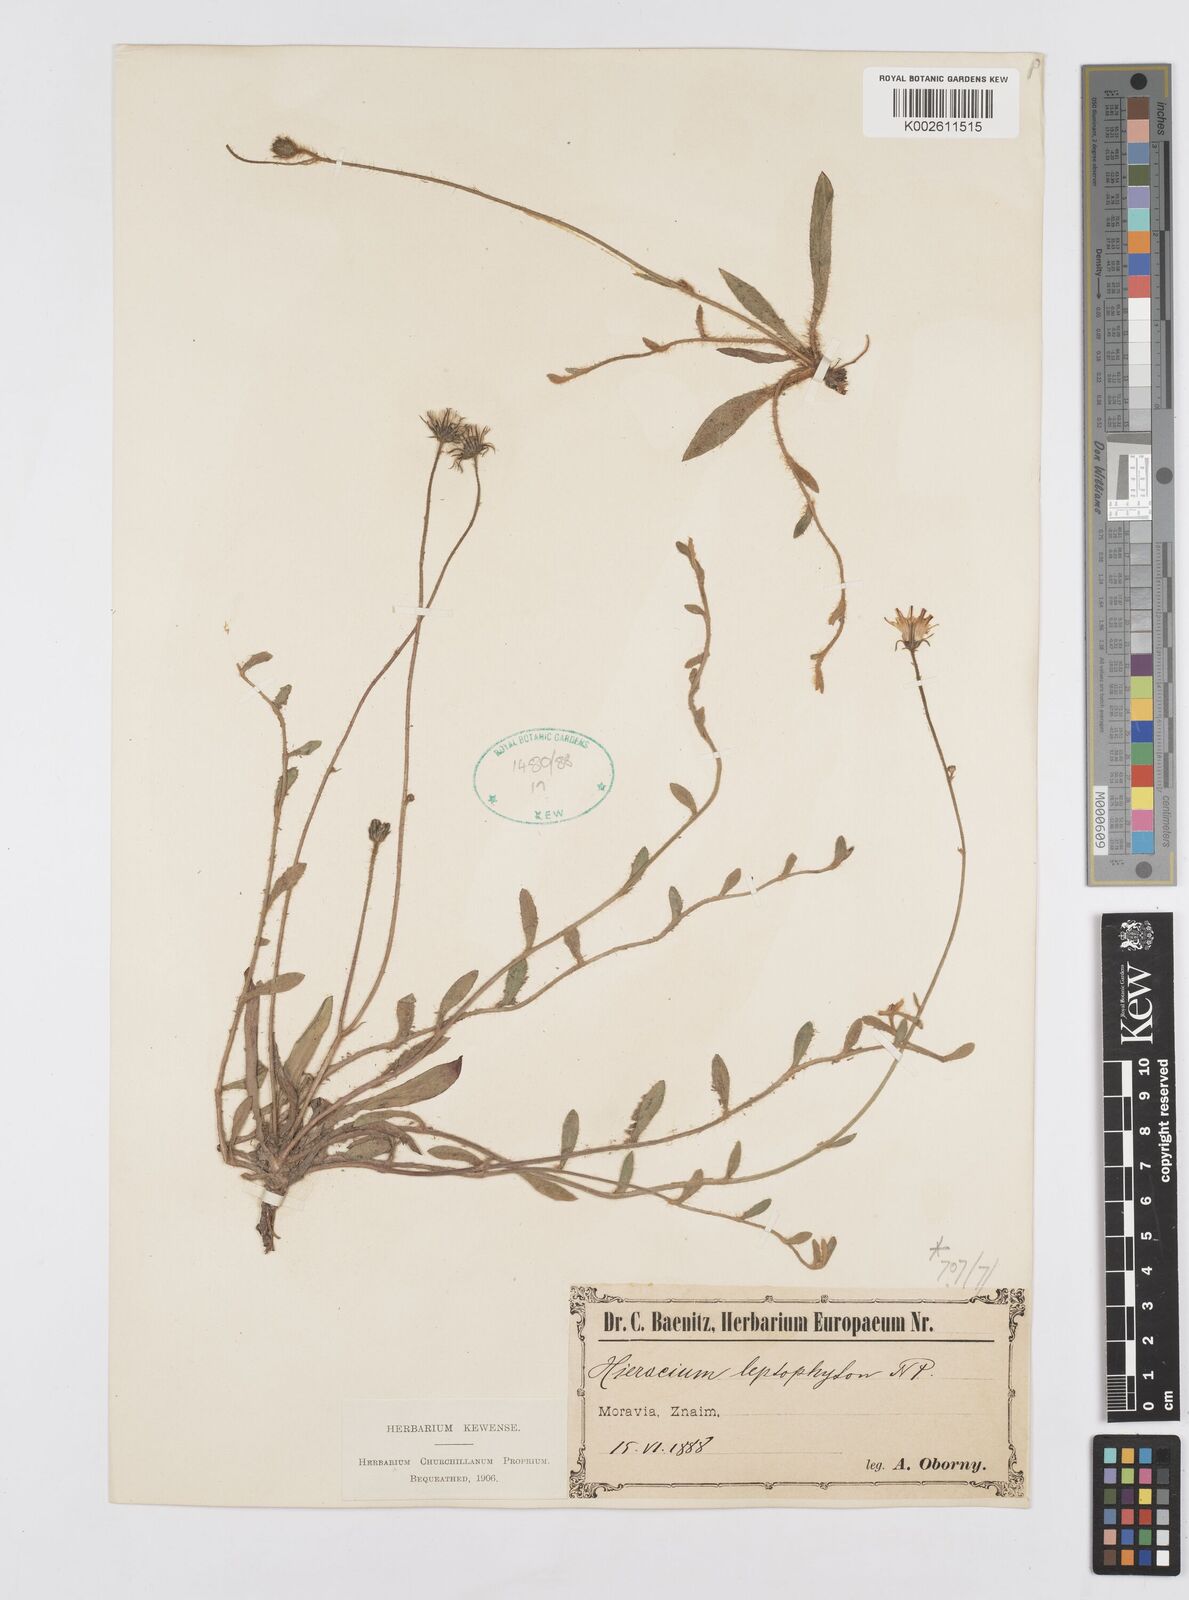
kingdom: Plantae
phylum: Tracheophyta
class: Magnoliopsida
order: Asterales
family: Asteraceae
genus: Pilosella
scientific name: Pilosella leptophyton
